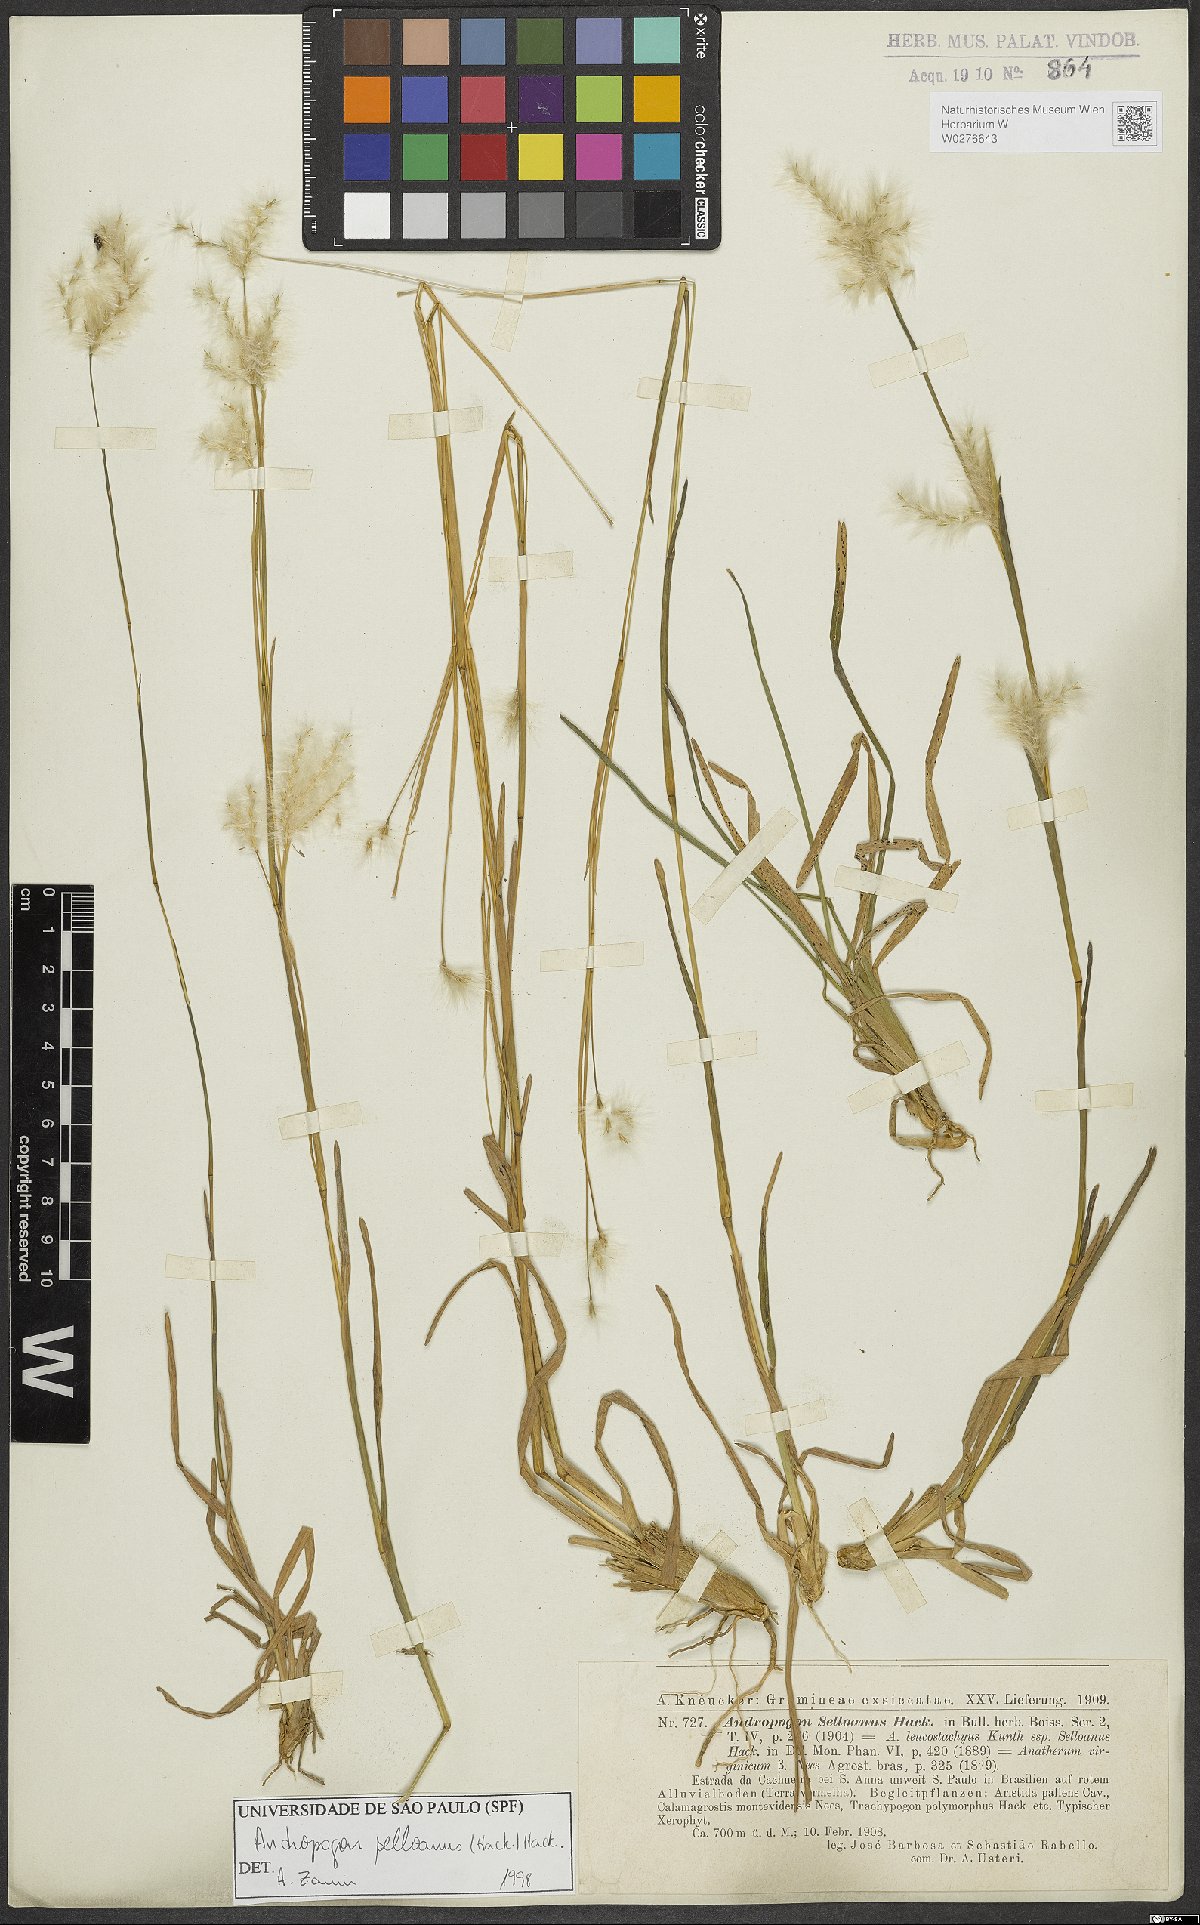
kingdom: Plantae
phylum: Tracheophyta
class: Liliopsida
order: Poales
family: Poaceae
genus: Andropogon
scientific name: Andropogon selloanus
